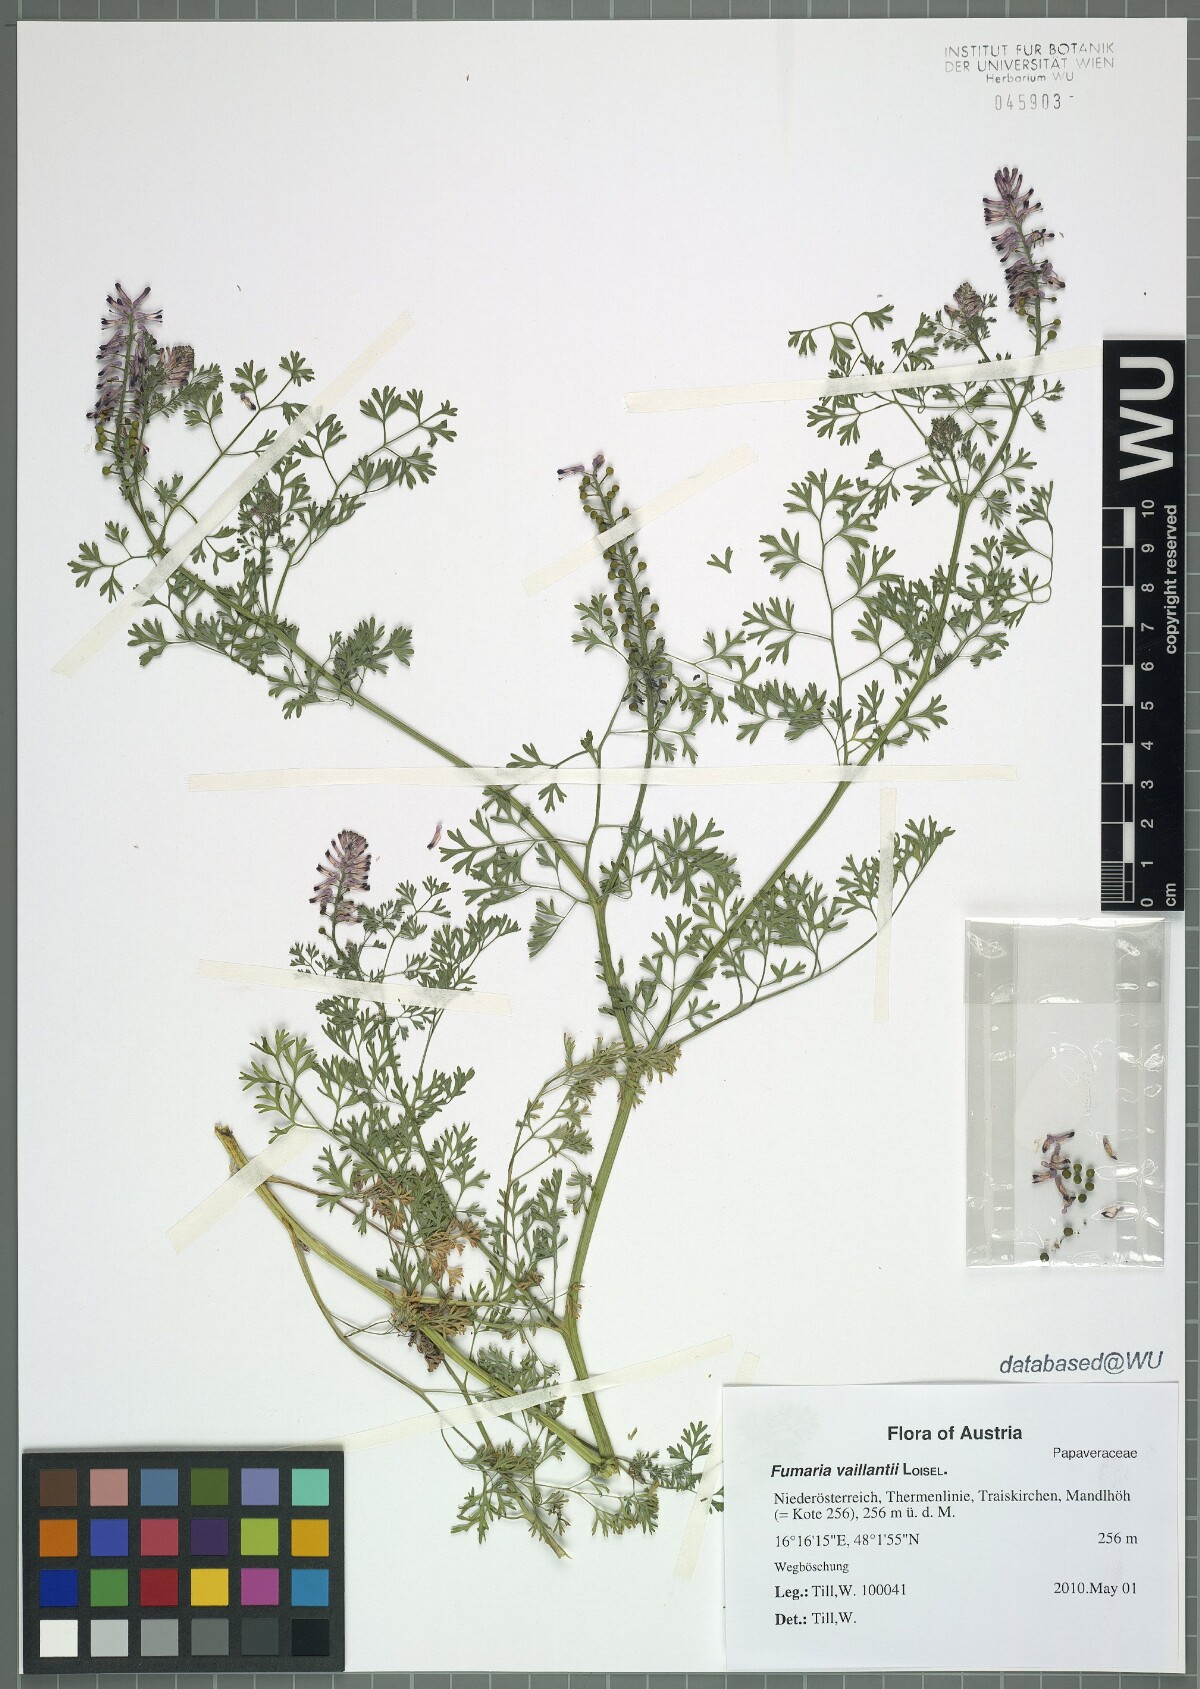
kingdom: Plantae
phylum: Tracheophyta
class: Magnoliopsida
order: Ranunculales
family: Papaveraceae
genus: Fumaria
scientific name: Fumaria vaillantii
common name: Few-flowered fumitory
